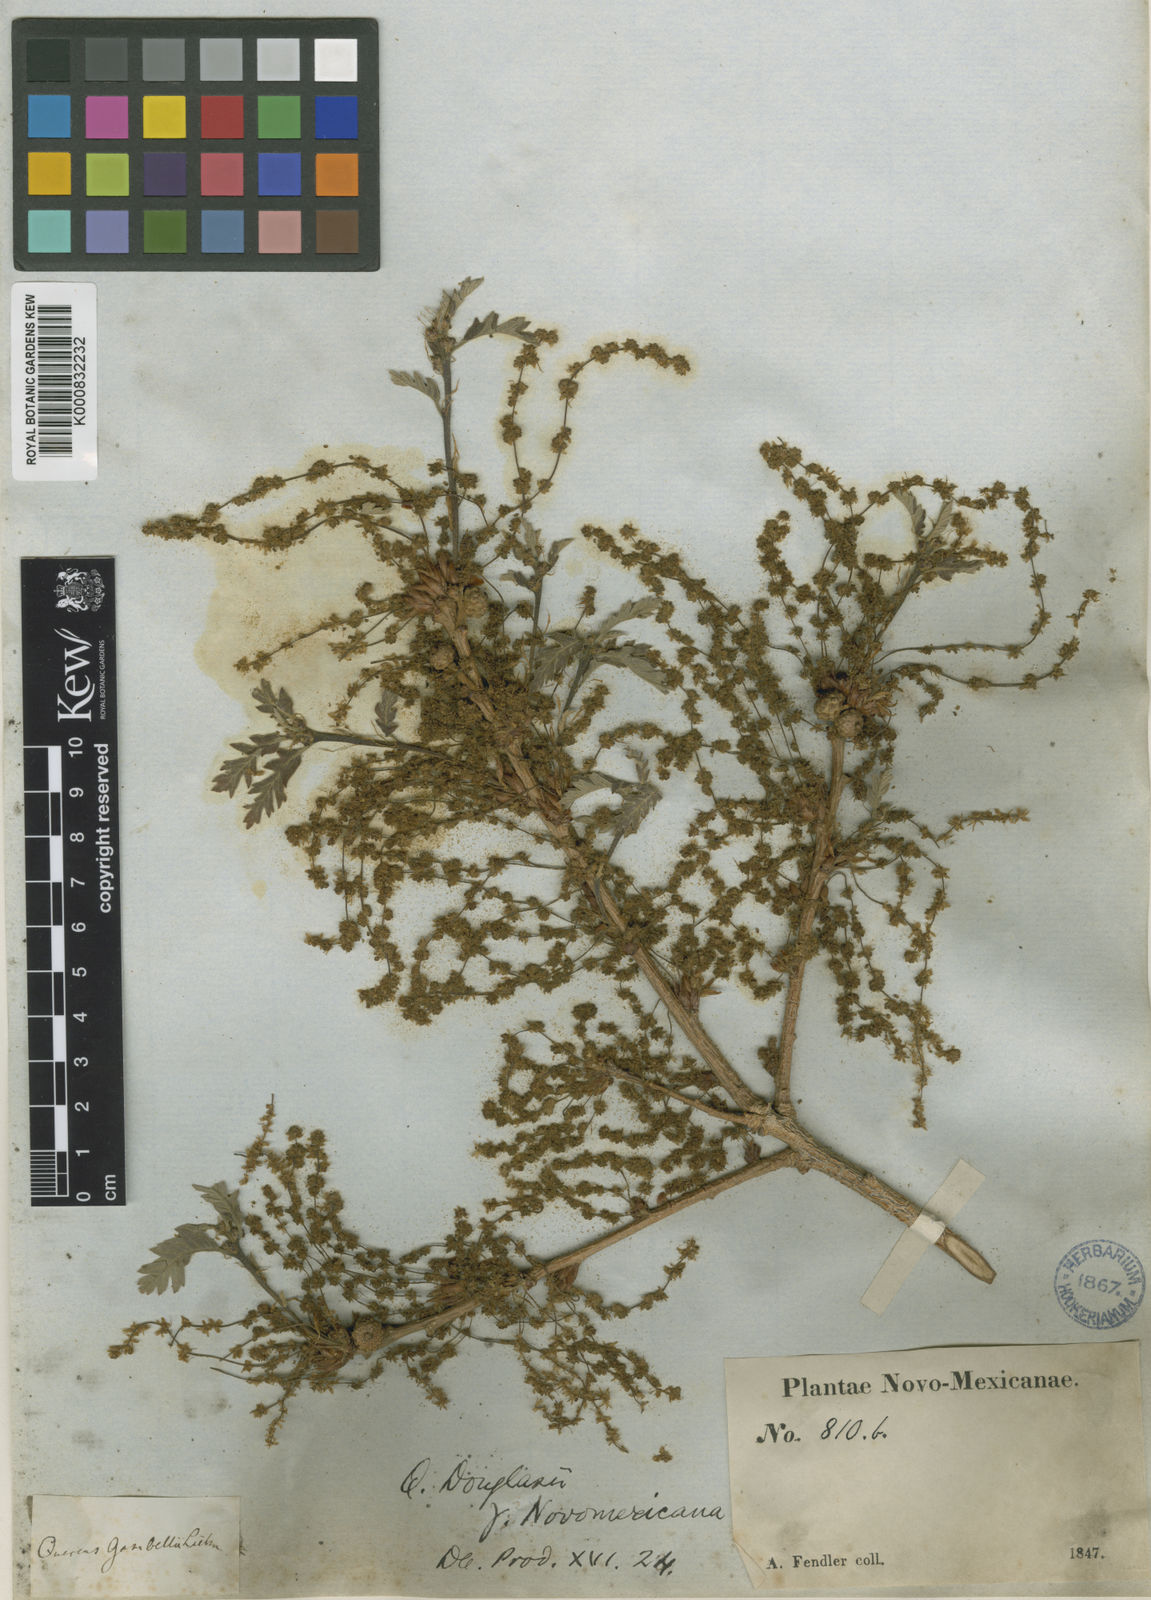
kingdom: Plantae
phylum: Tracheophyta
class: Magnoliopsida
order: Fagales
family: Fagaceae
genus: Quercus
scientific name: Quercus gambelii
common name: Gambel oak
